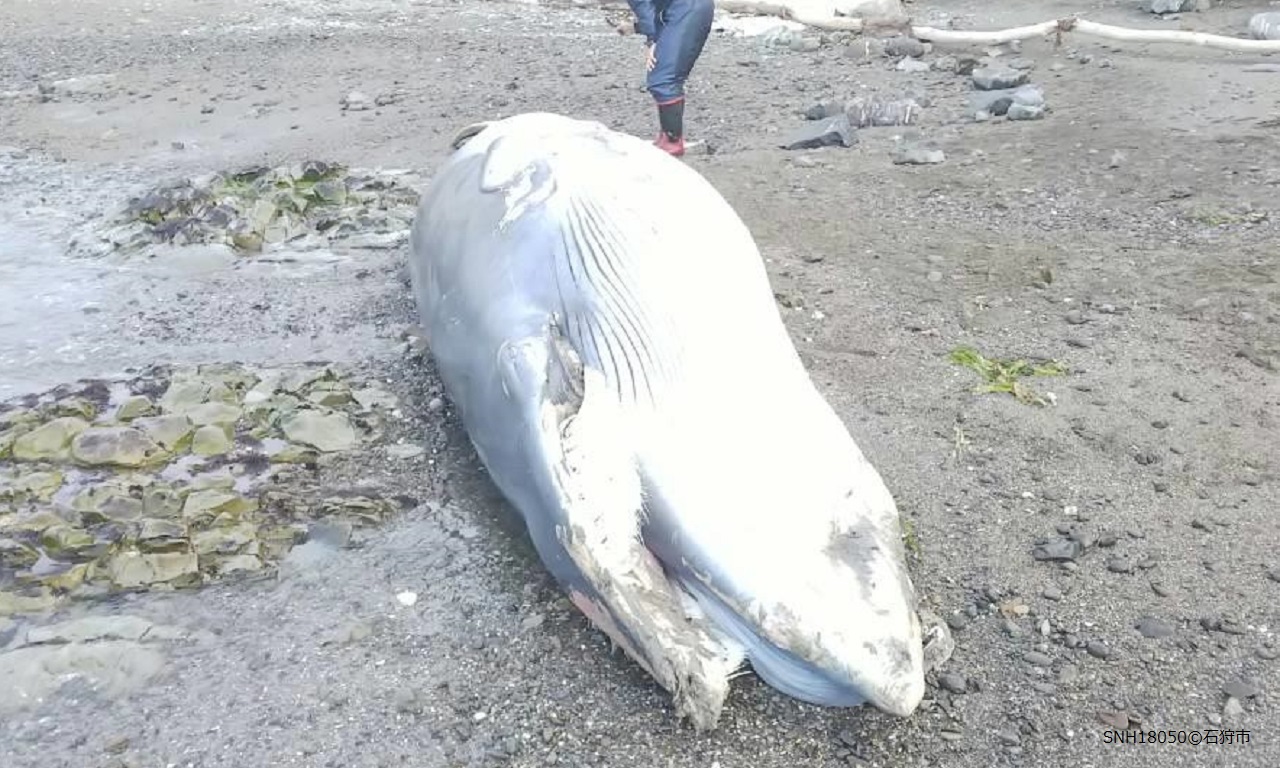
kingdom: Animalia
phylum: Chordata
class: Mammalia
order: Cetacea
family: Balaenopteridae
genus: Balaenoptera
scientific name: Balaenoptera acutorostrata
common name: Minke whale
